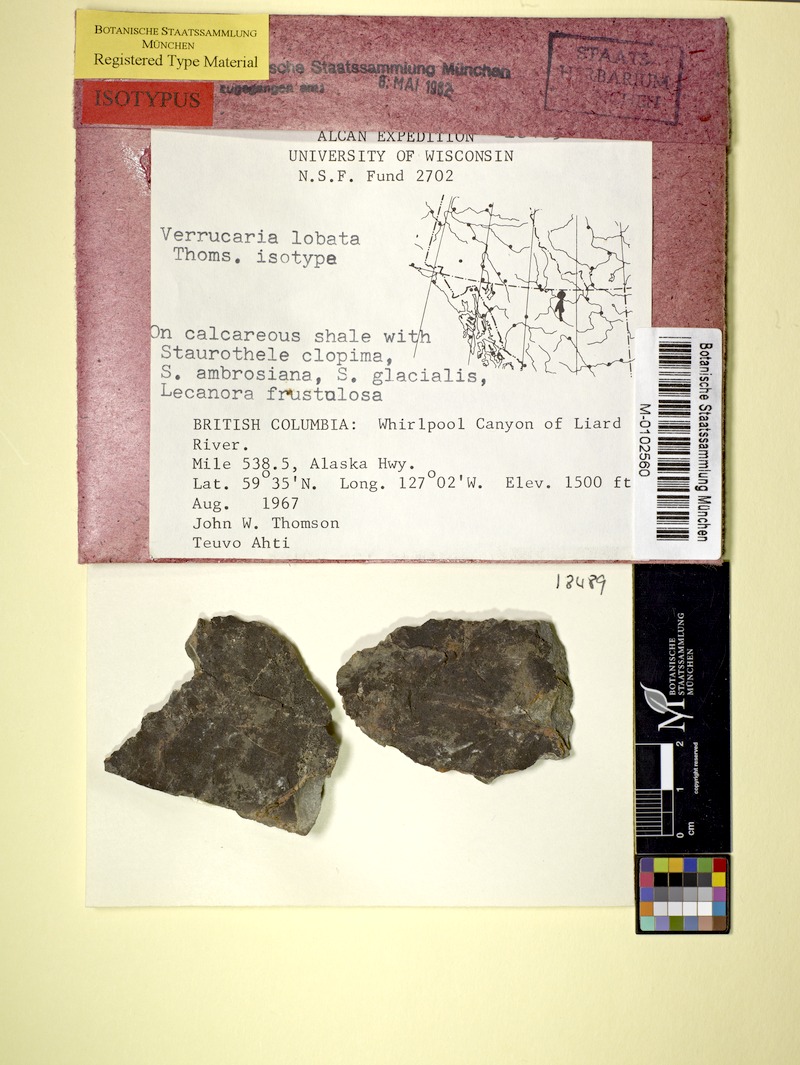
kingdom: Fungi
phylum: Ascomycota
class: Eurotiomycetes
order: Verrucariales
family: Verrucariaceae
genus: Verrucaria
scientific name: Verrucaria lobata
